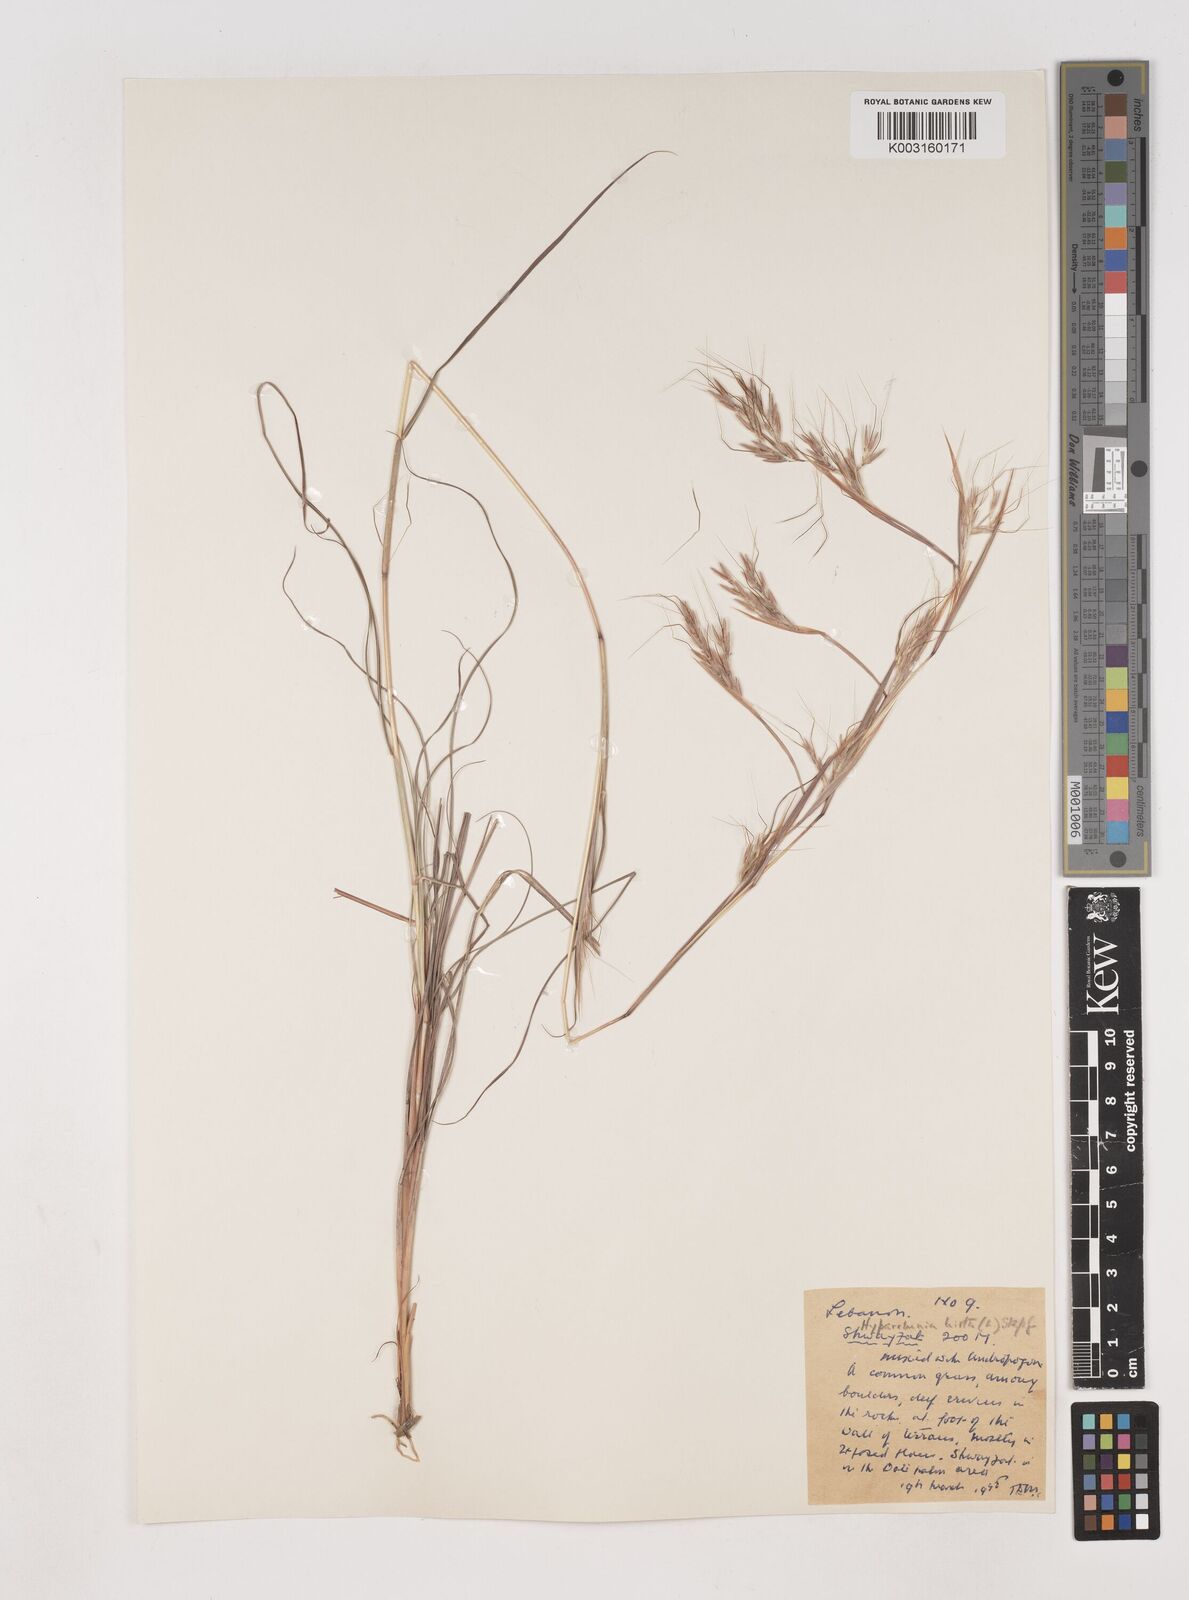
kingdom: Plantae
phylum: Tracheophyta
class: Liliopsida
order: Poales
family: Poaceae
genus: Hyparrhenia
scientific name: Hyparrhenia hirta
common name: Thatching grass
